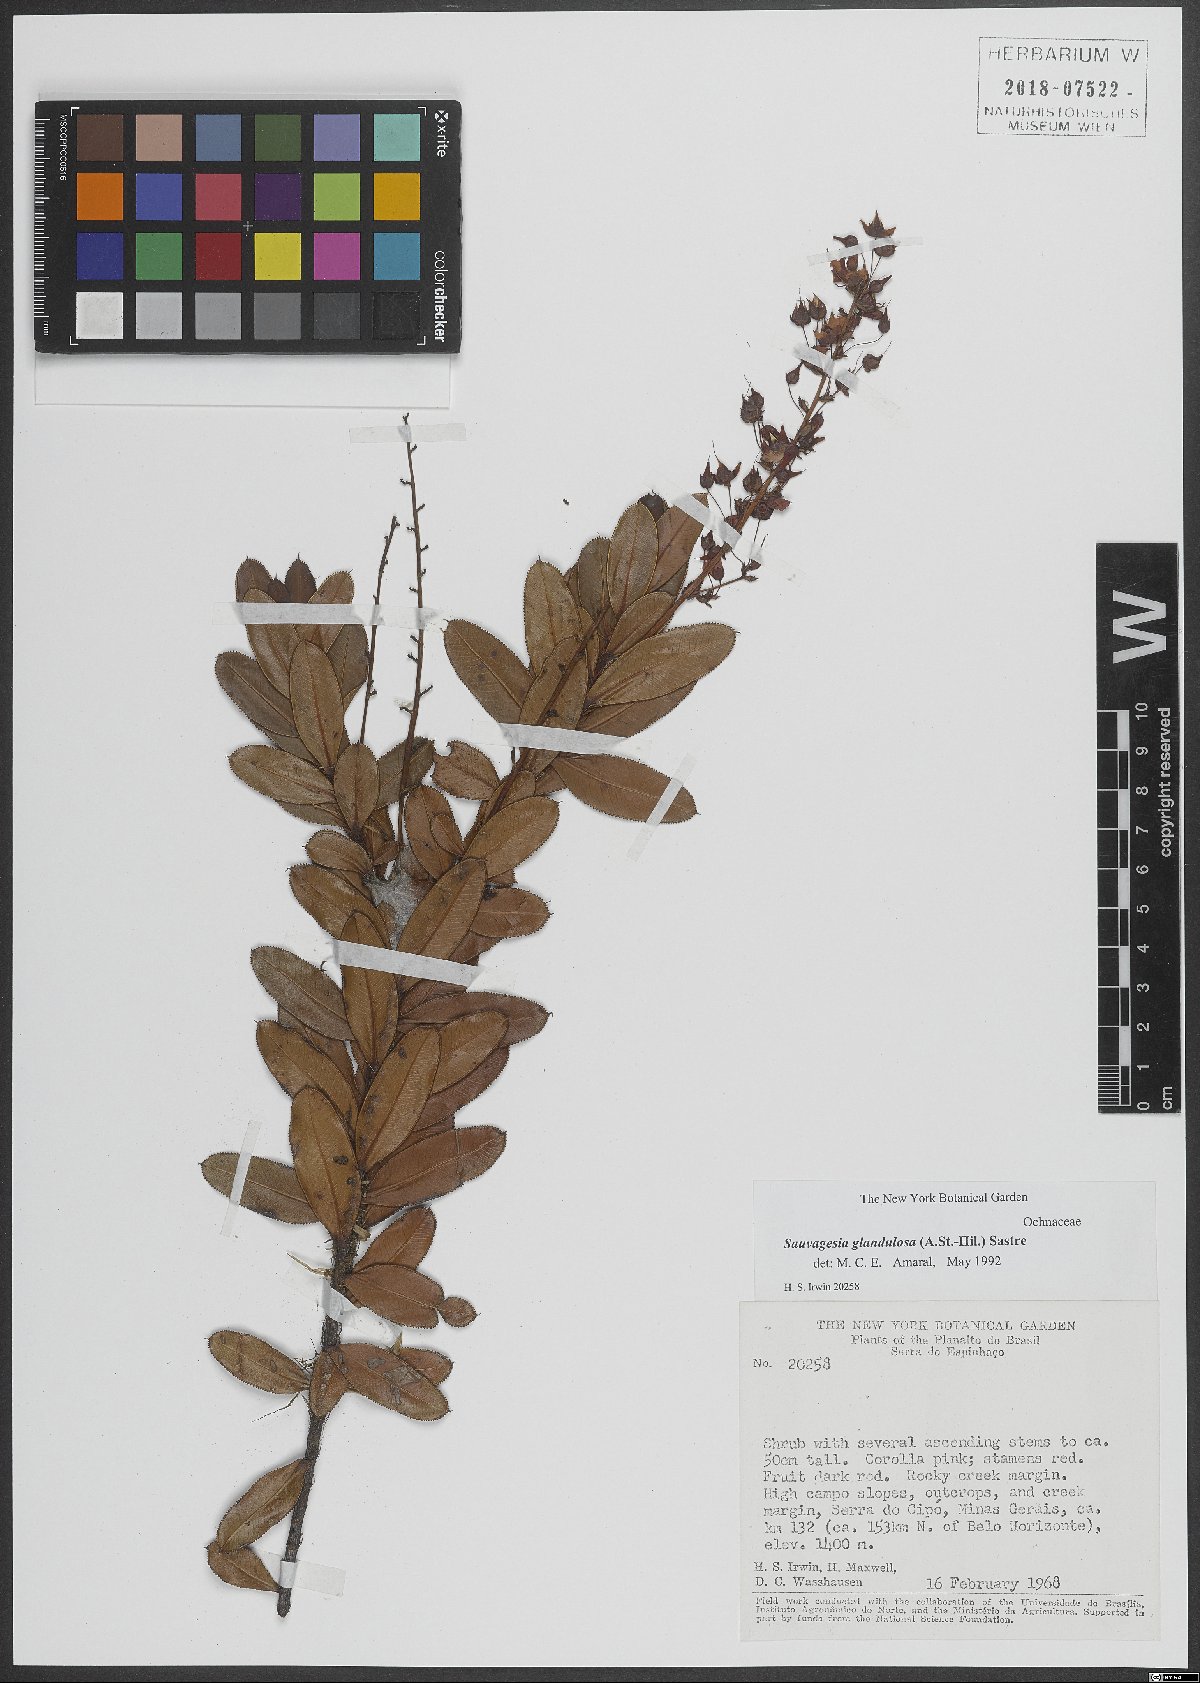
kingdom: Plantae
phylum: Tracheophyta
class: Magnoliopsida
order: Malpighiales
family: Ochnaceae
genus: Sauvagesia
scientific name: Sauvagesia glandulosa
